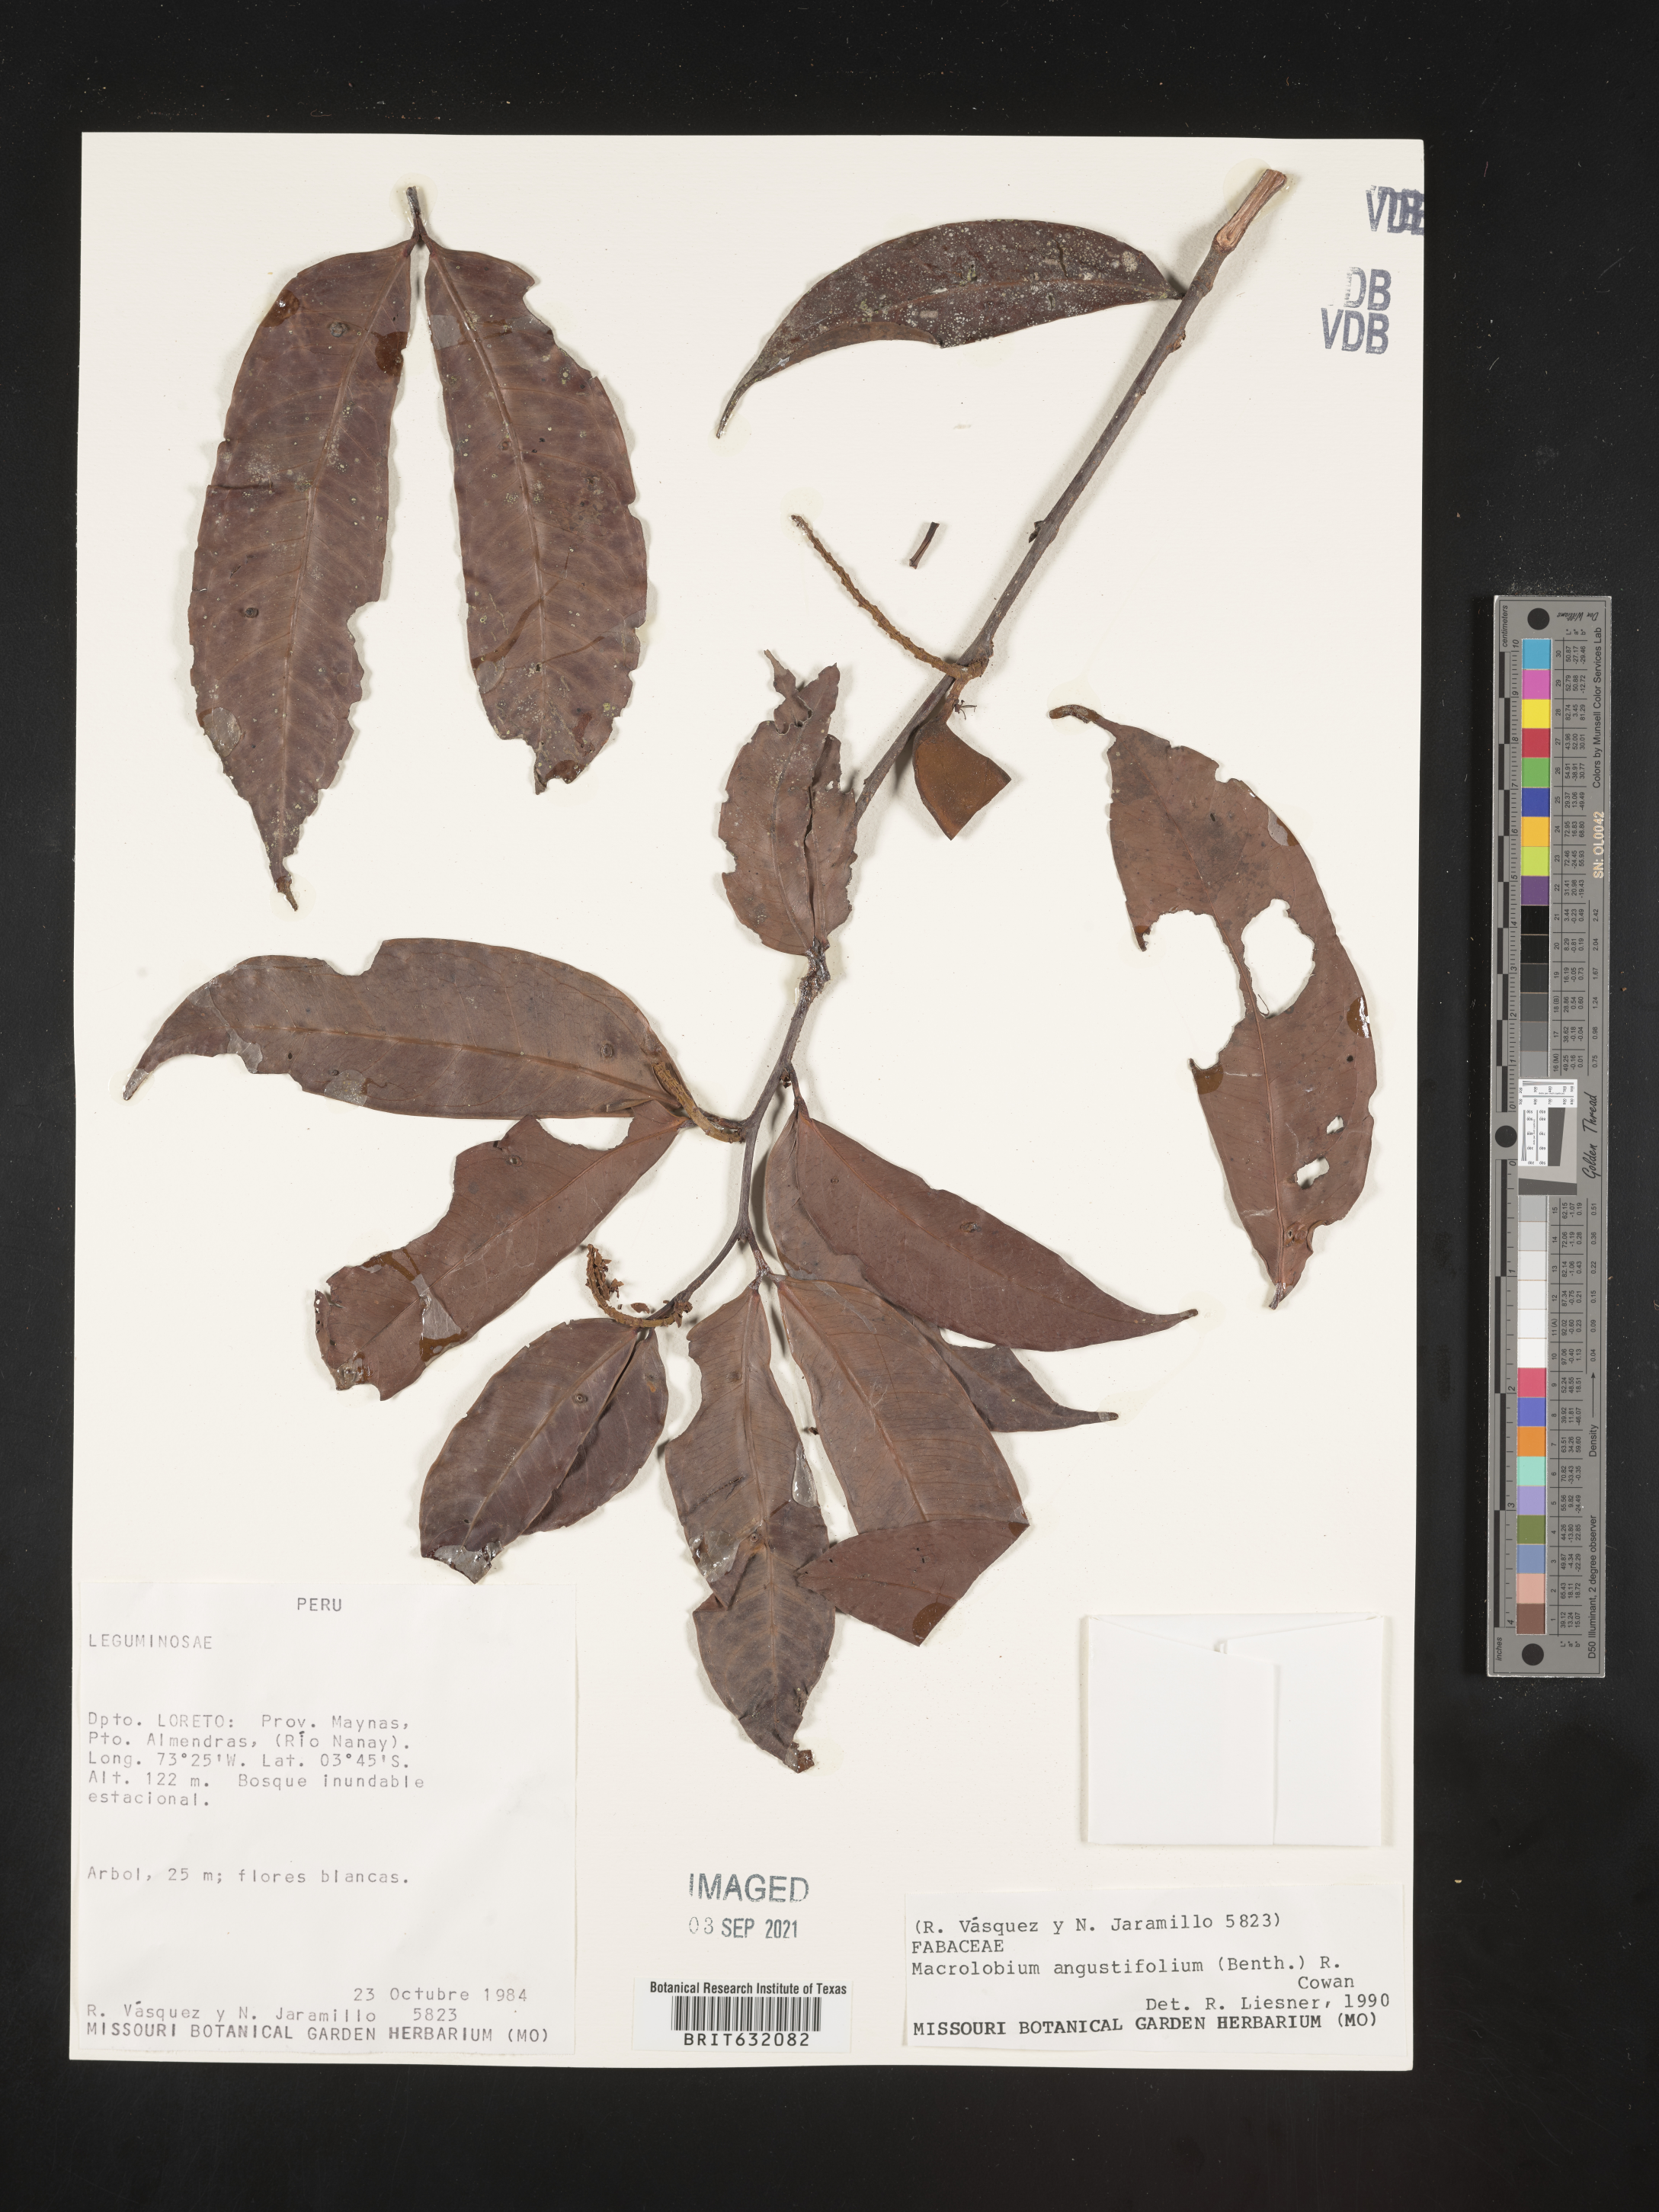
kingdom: Plantae
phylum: Tracheophyta
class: Magnoliopsida
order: Fabales
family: Fabaceae
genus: Macrolobium
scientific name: Macrolobium
